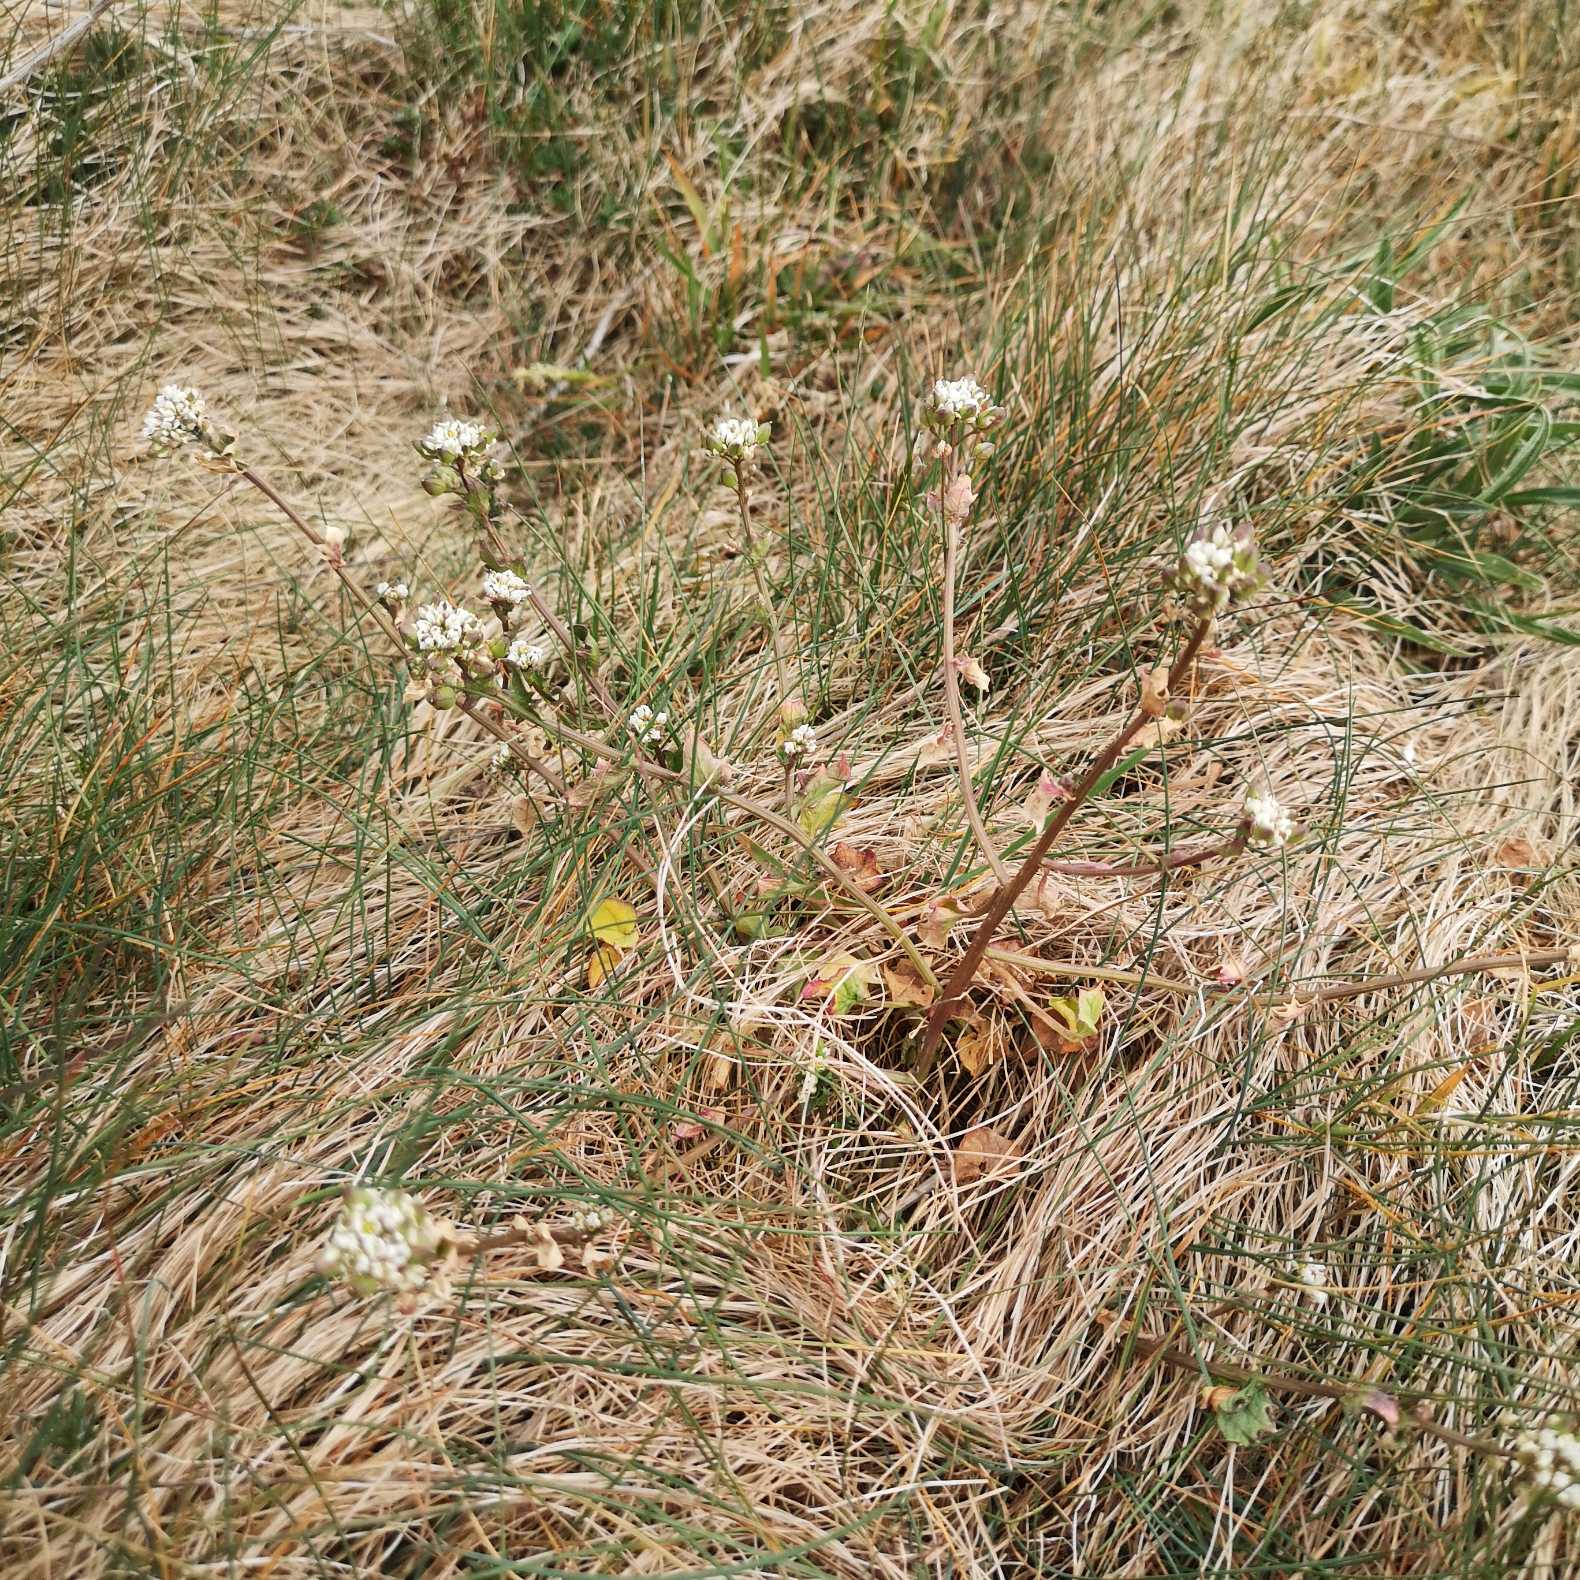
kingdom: Plantae
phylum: Tracheophyta
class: Magnoliopsida
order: Brassicales
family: Brassicaceae
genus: Cochlearia
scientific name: Cochlearia danica
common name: Dansk kokleare
